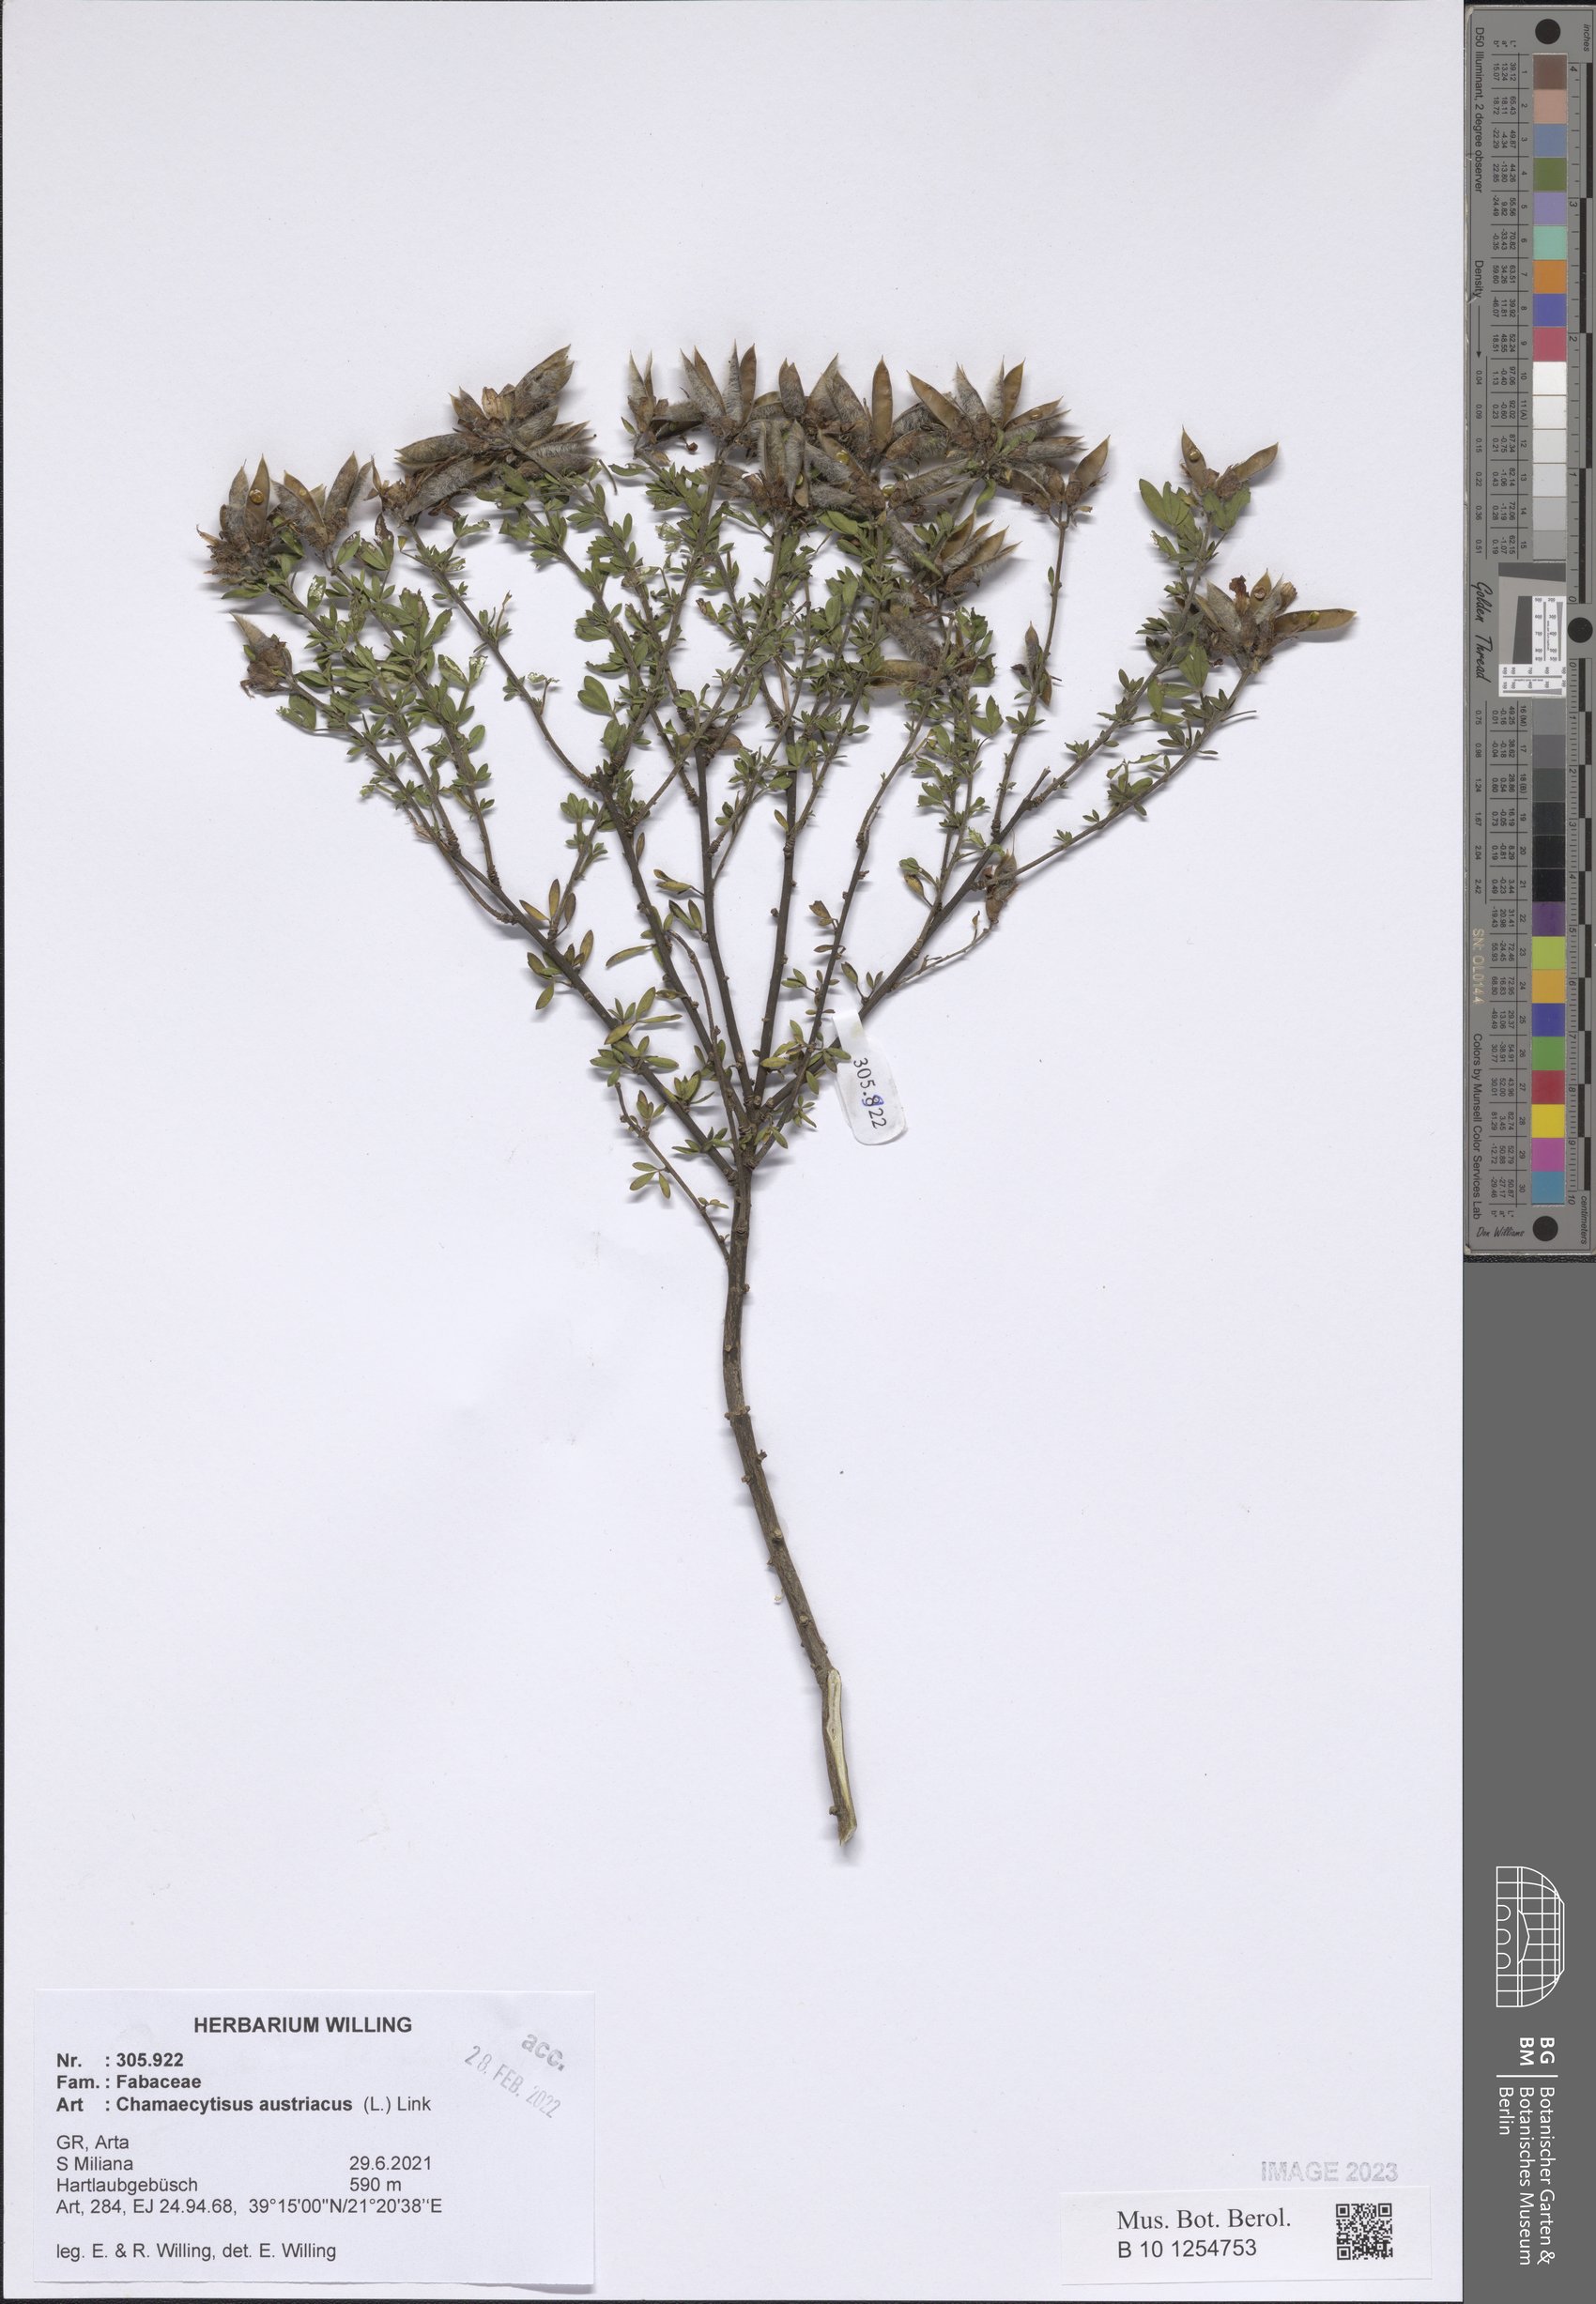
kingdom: Plantae
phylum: Tracheophyta
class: Magnoliopsida
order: Fabales
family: Fabaceae
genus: Chamaecytisus
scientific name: Chamaecytisus austriacus
